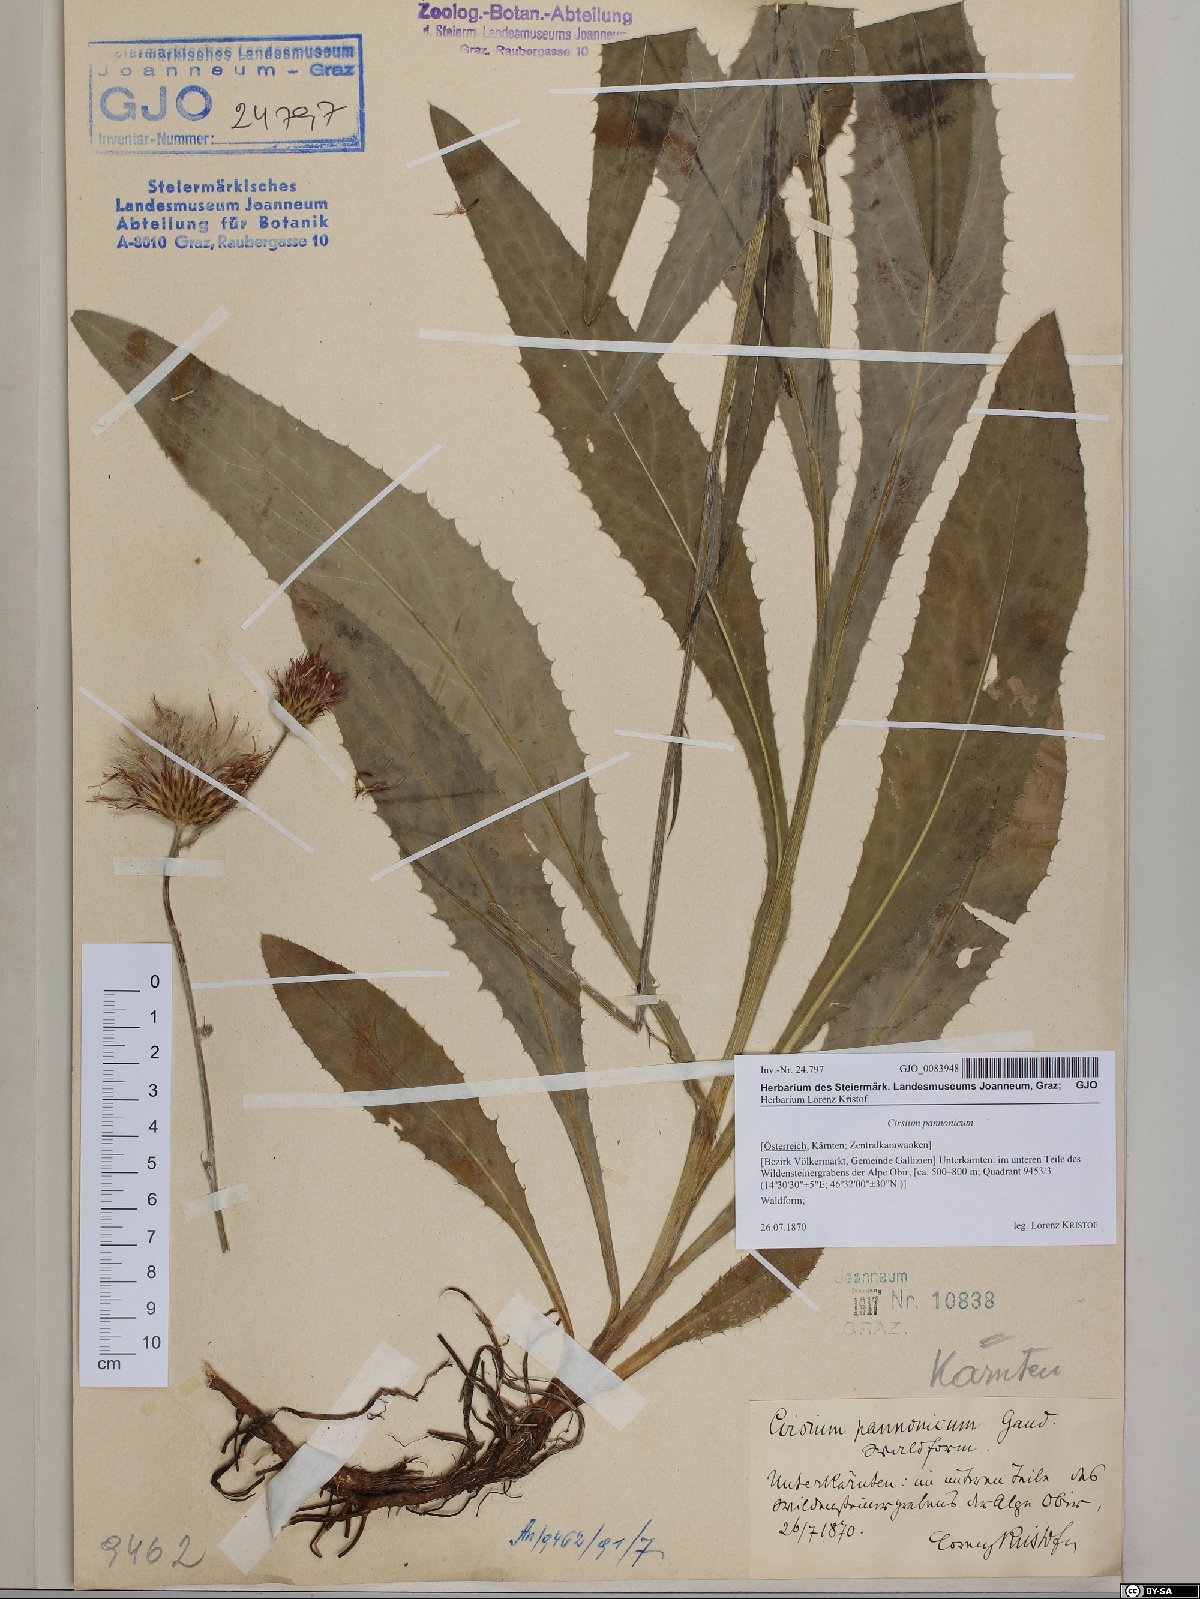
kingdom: Plantae
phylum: Tracheophyta
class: Magnoliopsida
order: Asterales
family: Asteraceae
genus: Cirsium
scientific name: Cirsium pannonicum
